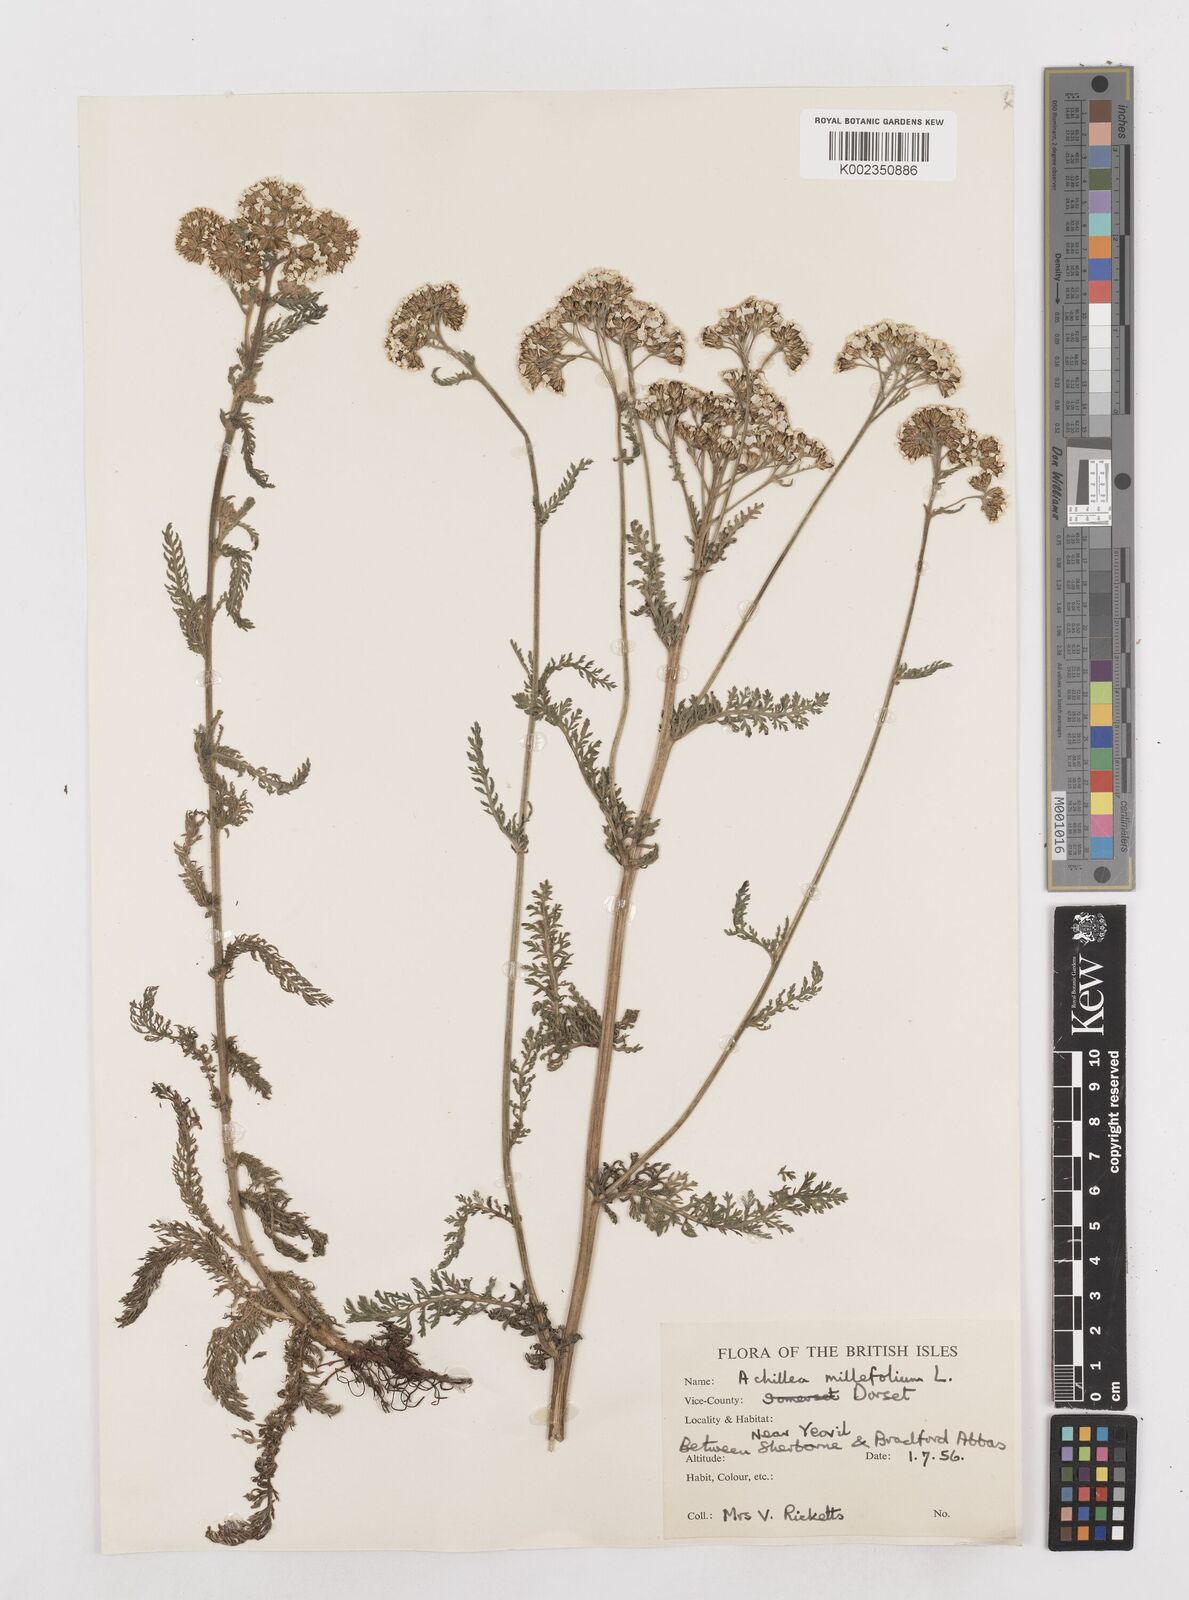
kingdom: Plantae
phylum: Tracheophyta
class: Magnoliopsida
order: Asterales
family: Asteraceae
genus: Achillea
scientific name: Achillea millefolium
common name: Yarrow
